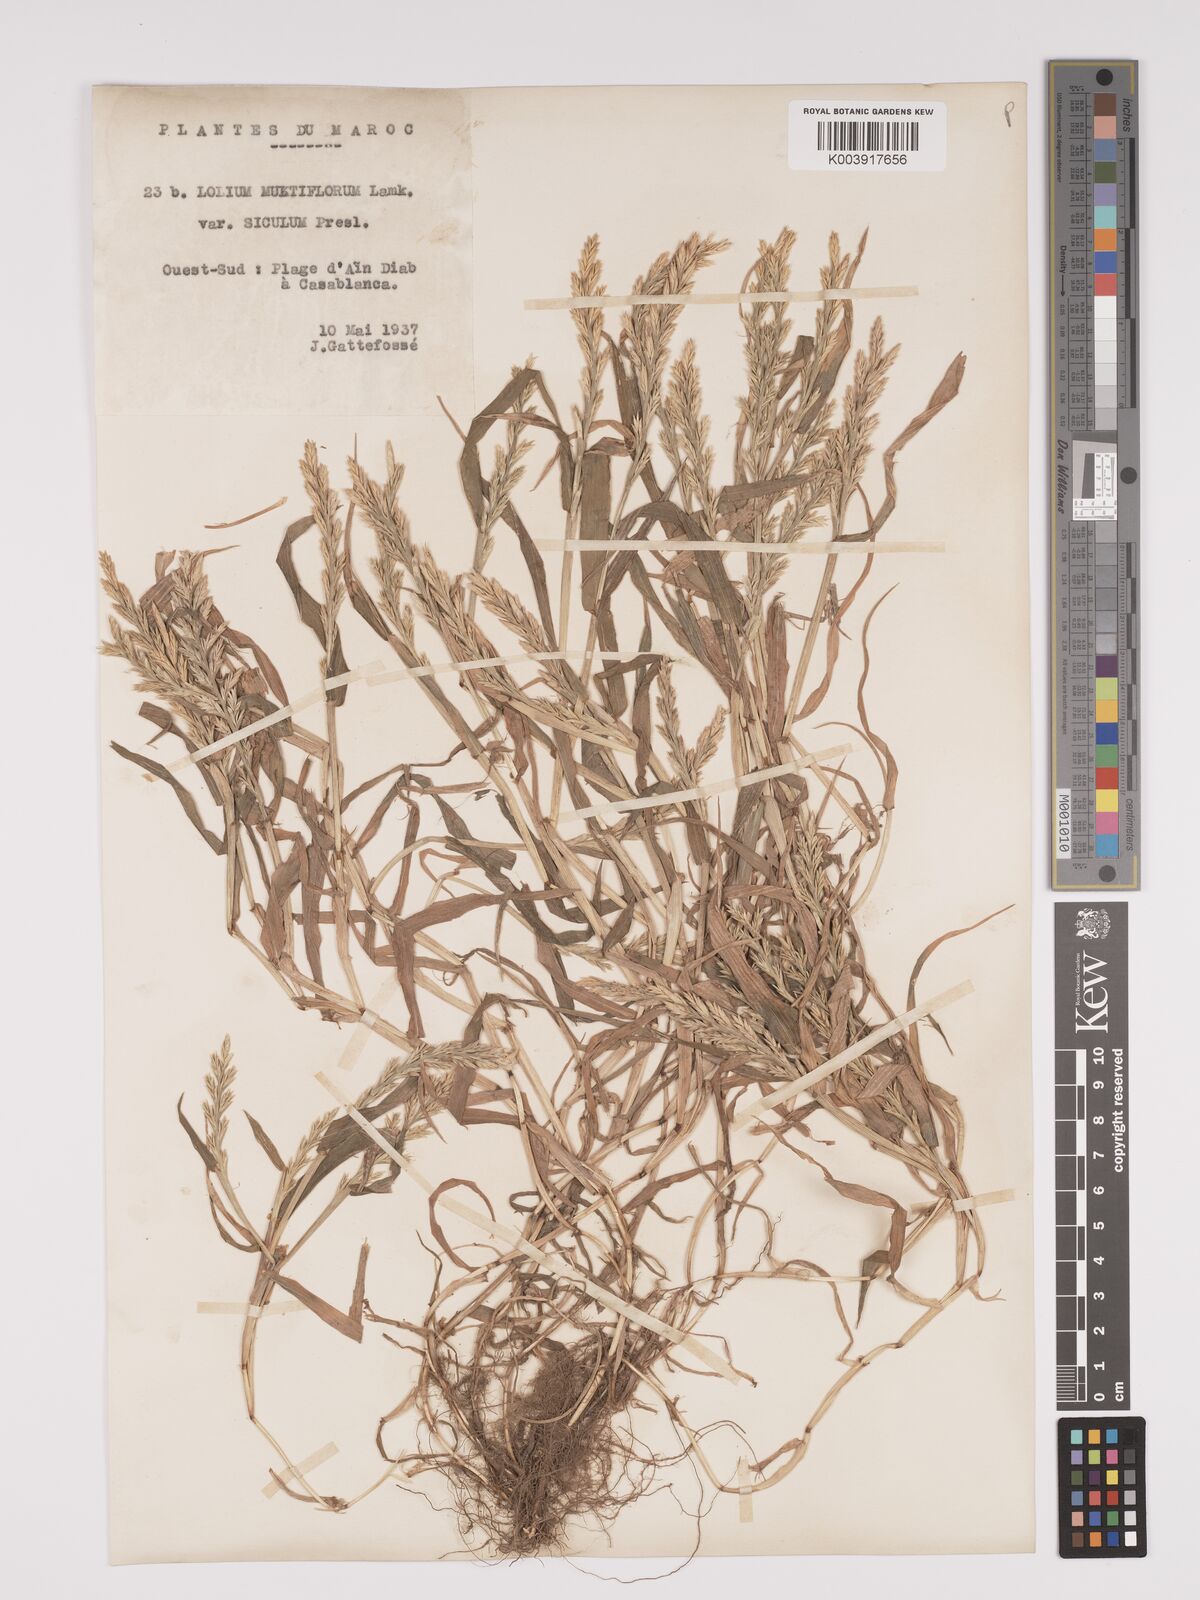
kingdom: Plantae
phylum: Tracheophyta
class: Liliopsida
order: Poales
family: Poaceae
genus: Lolium
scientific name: Lolium multiflorum
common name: Annual ryegrass
